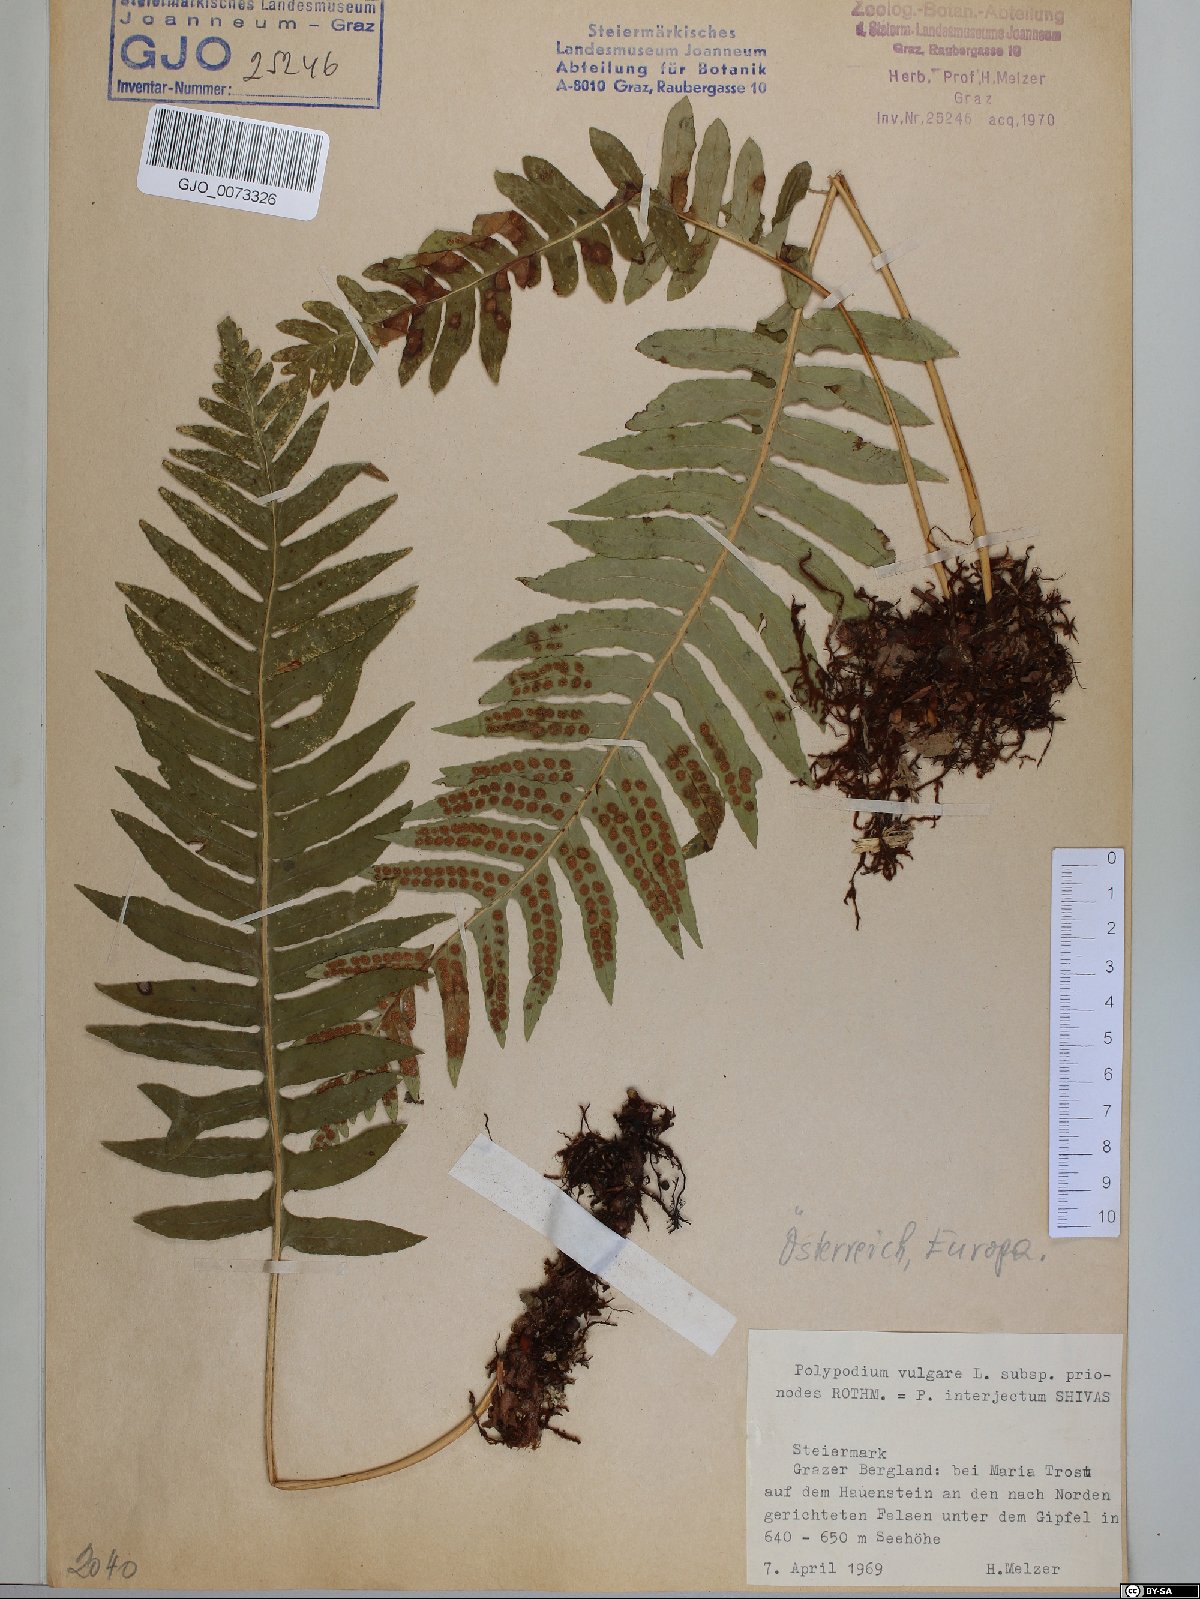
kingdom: Plantae
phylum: Tracheophyta
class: Polypodiopsida
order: Polypodiales
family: Polypodiaceae
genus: Polypodium
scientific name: Polypodium interjectum
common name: Intermediate polypody
